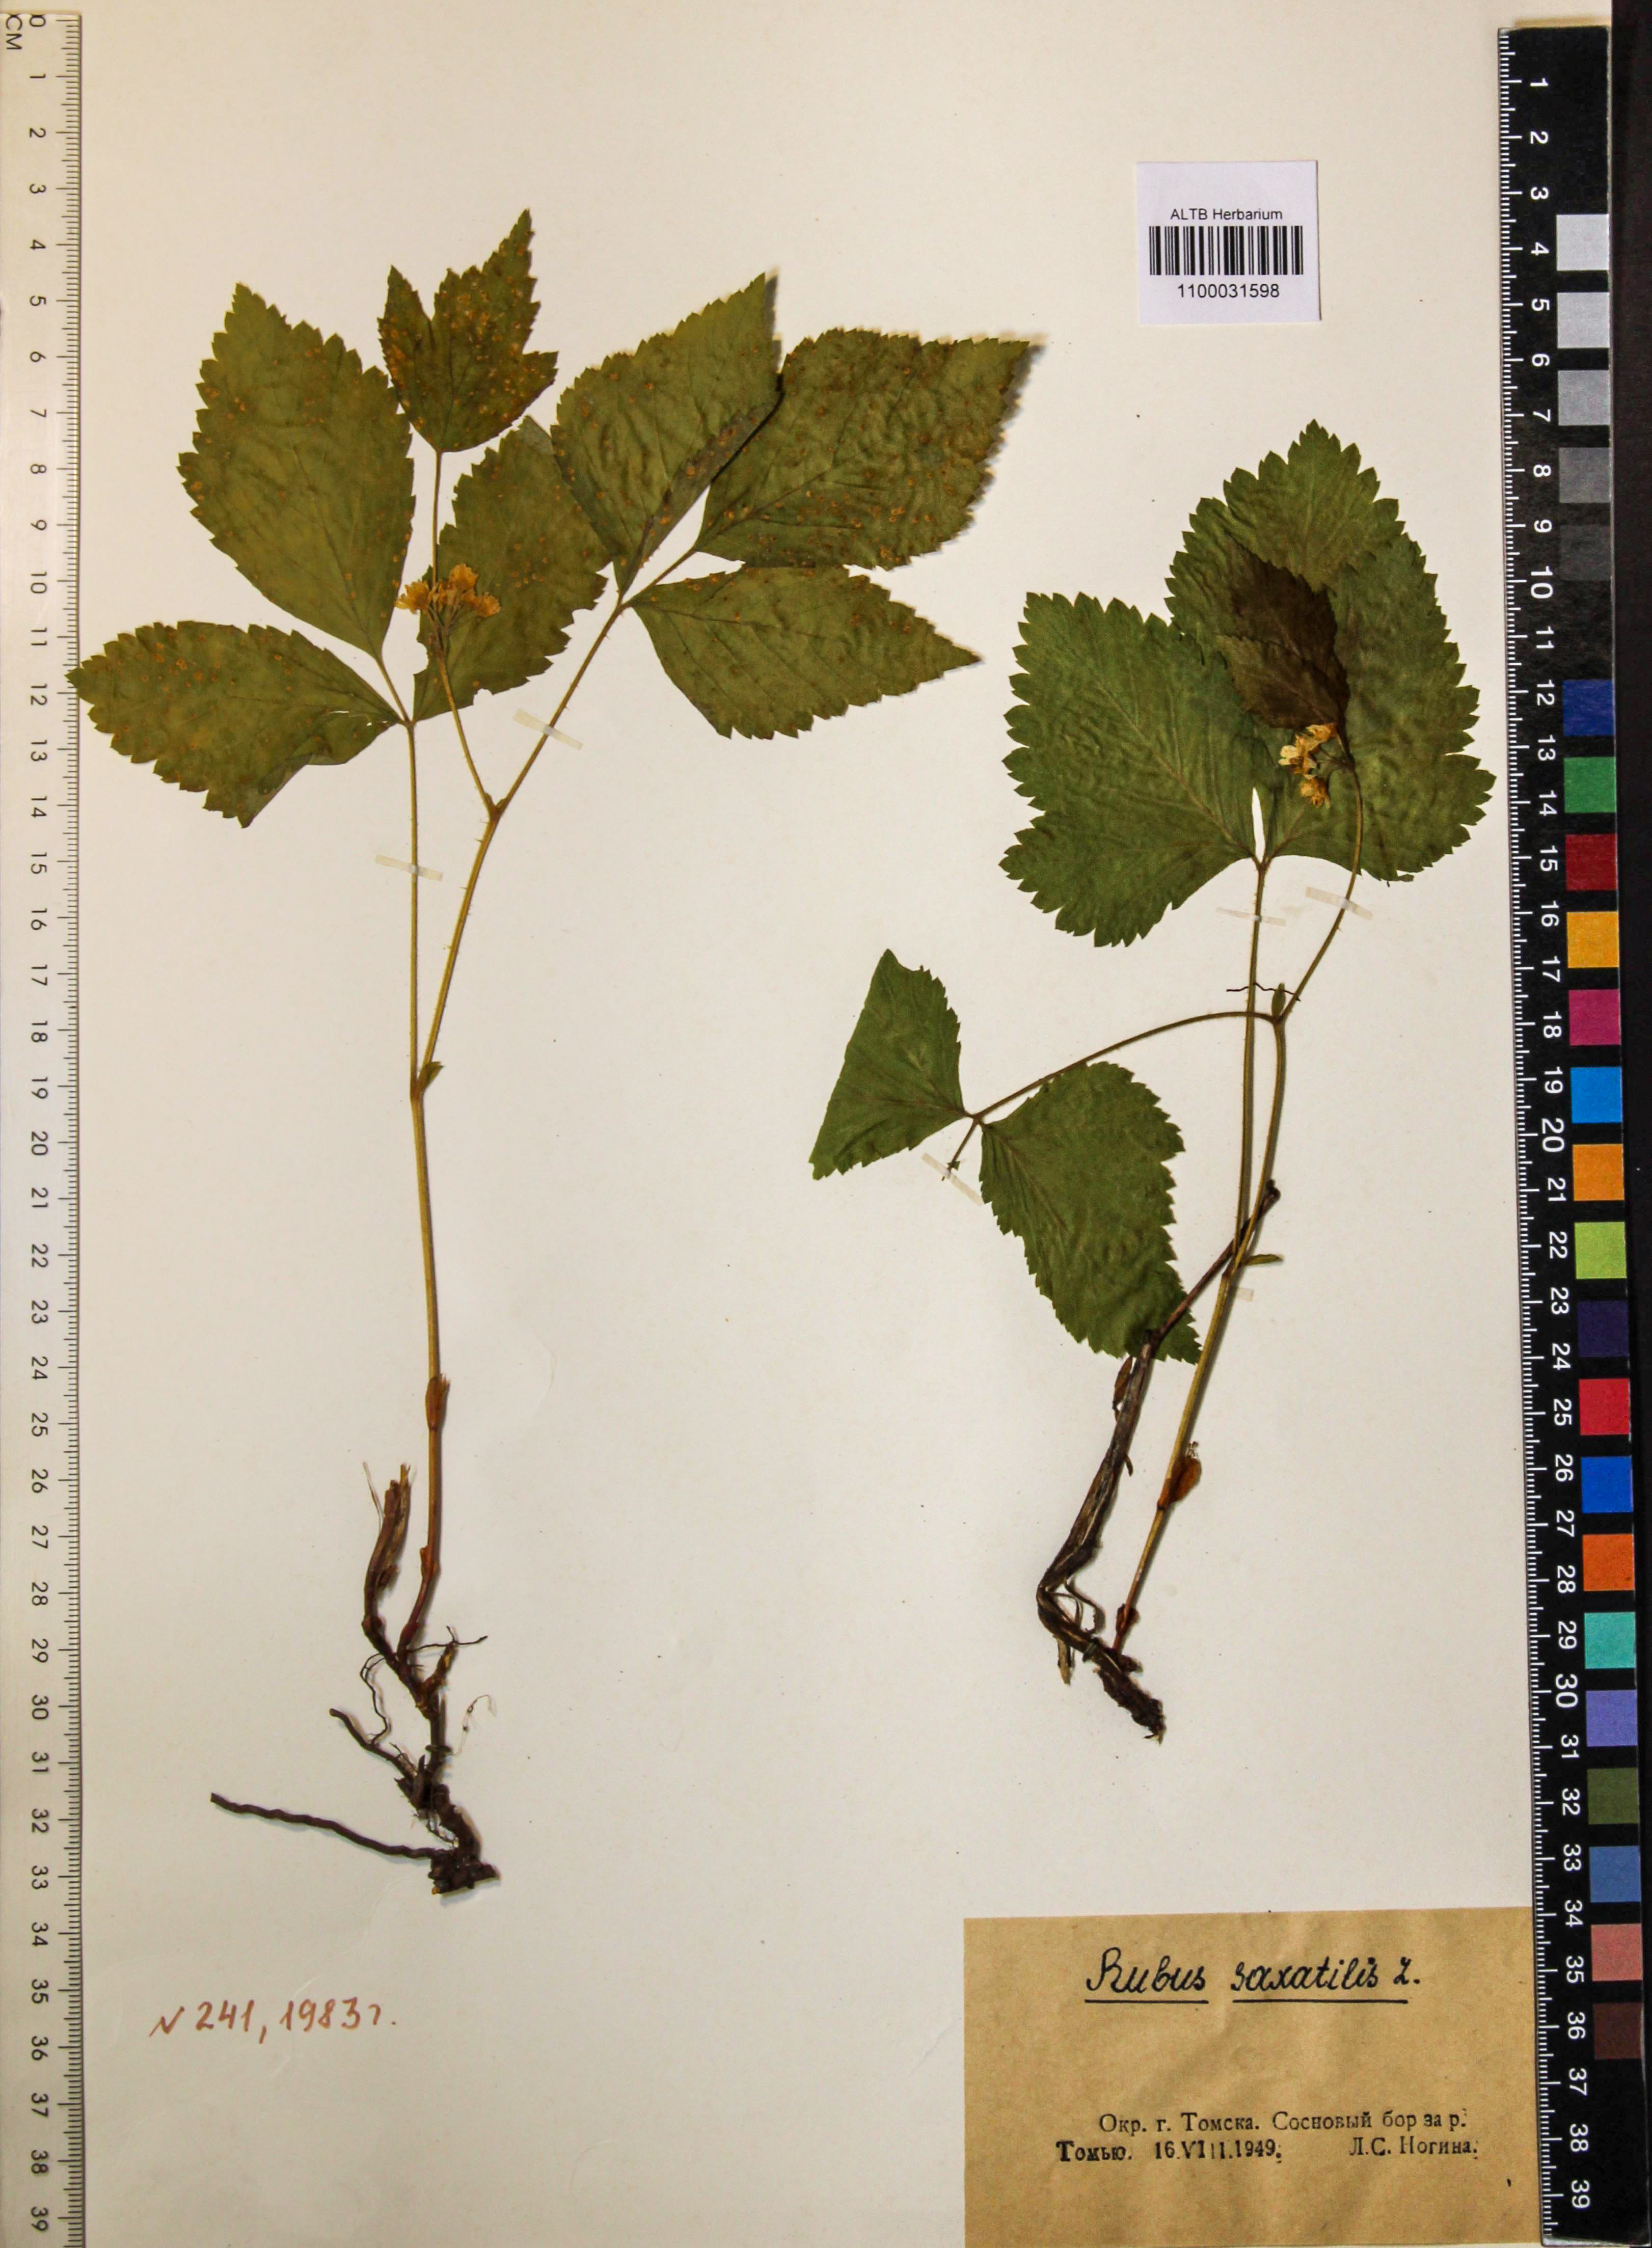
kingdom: Plantae
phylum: Tracheophyta
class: Magnoliopsida
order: Rosales
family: Rosaceae
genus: Rubus
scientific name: Rubus saxatilis
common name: Stone bramble
